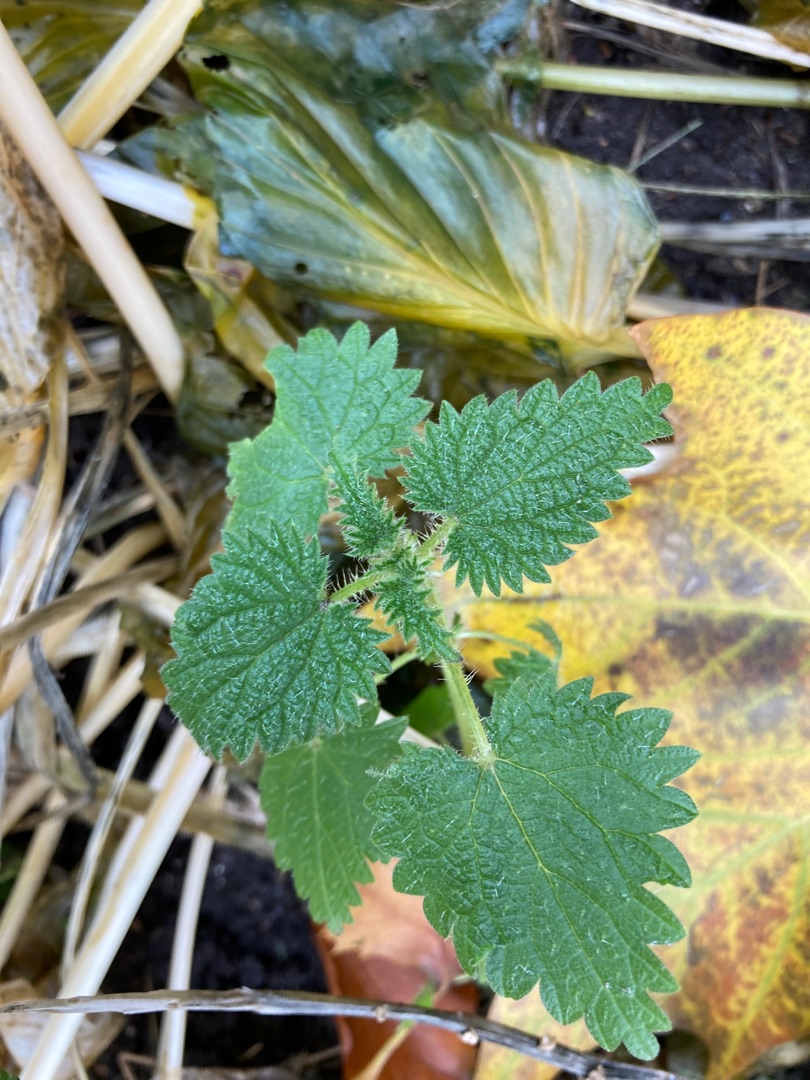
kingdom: Plantae
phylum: Tracheophyta
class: Magnoliopsida
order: Rosales
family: Urticaceae
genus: Urtica
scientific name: Urtica dioica
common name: Stor nælde
